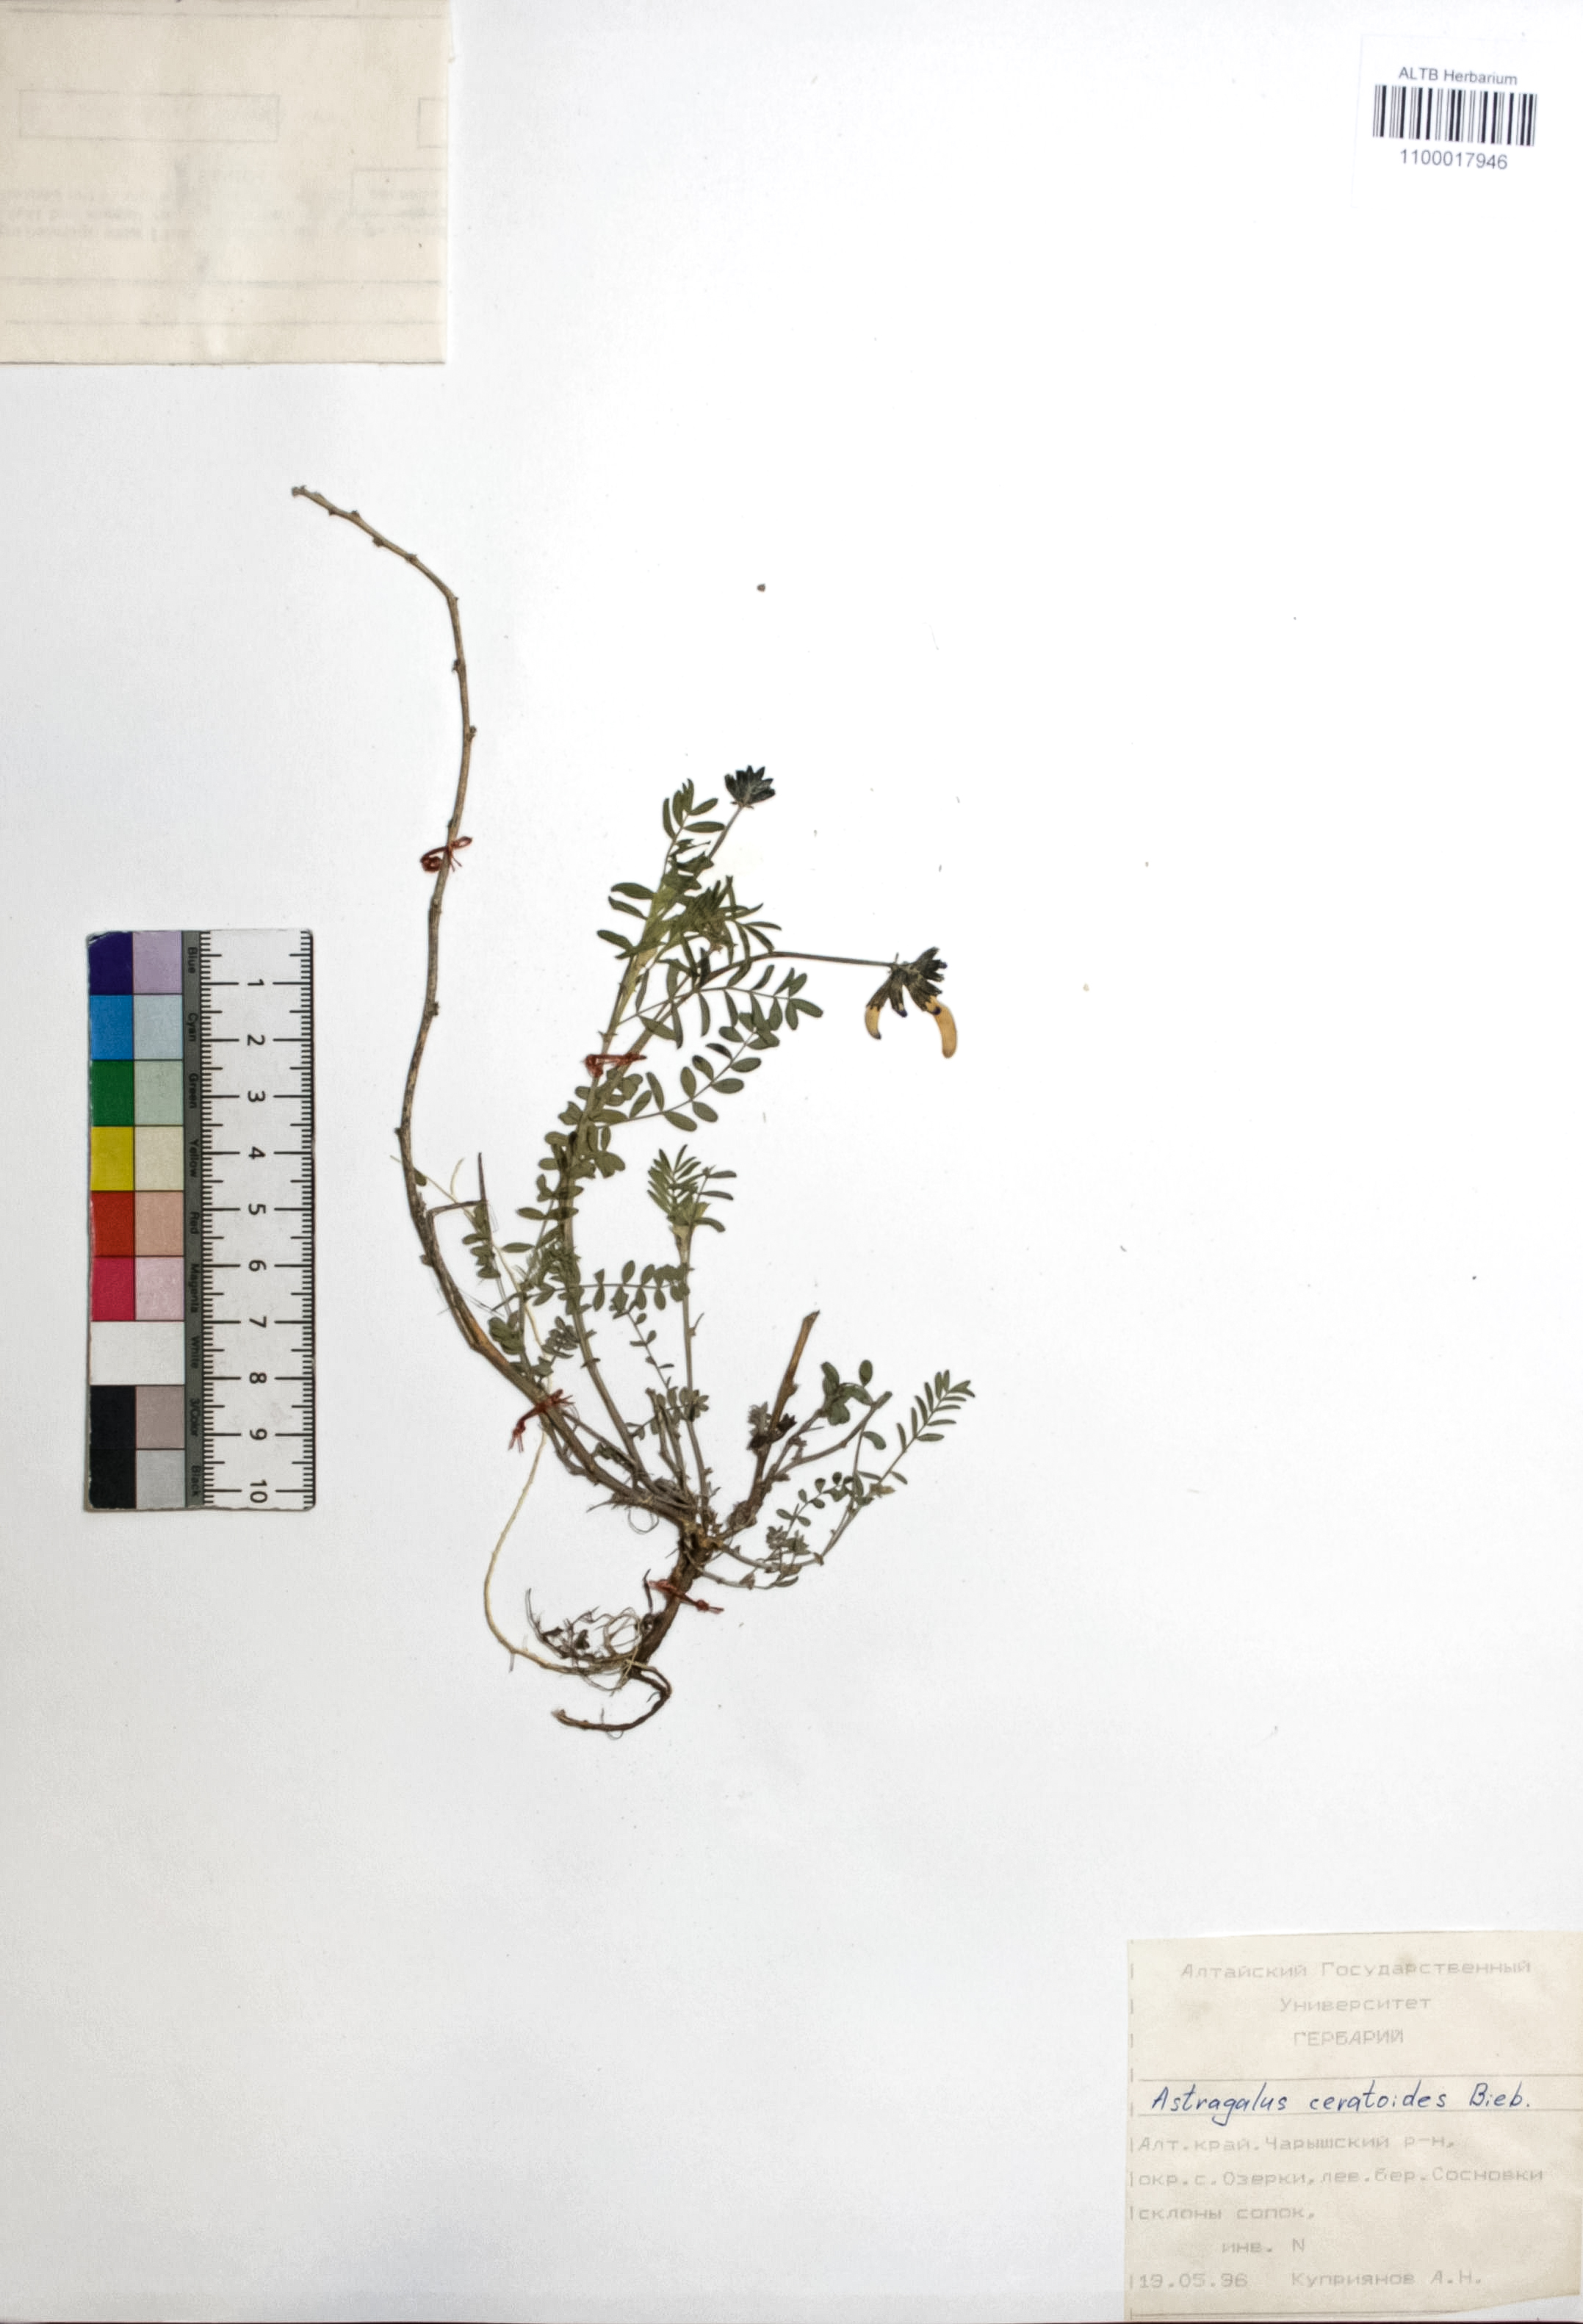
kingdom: Plantae
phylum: Tracheophyta
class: Magnoliopsida
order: Fabales
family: Fabaceae
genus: Astragalus
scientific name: Astragalus ceratoides
